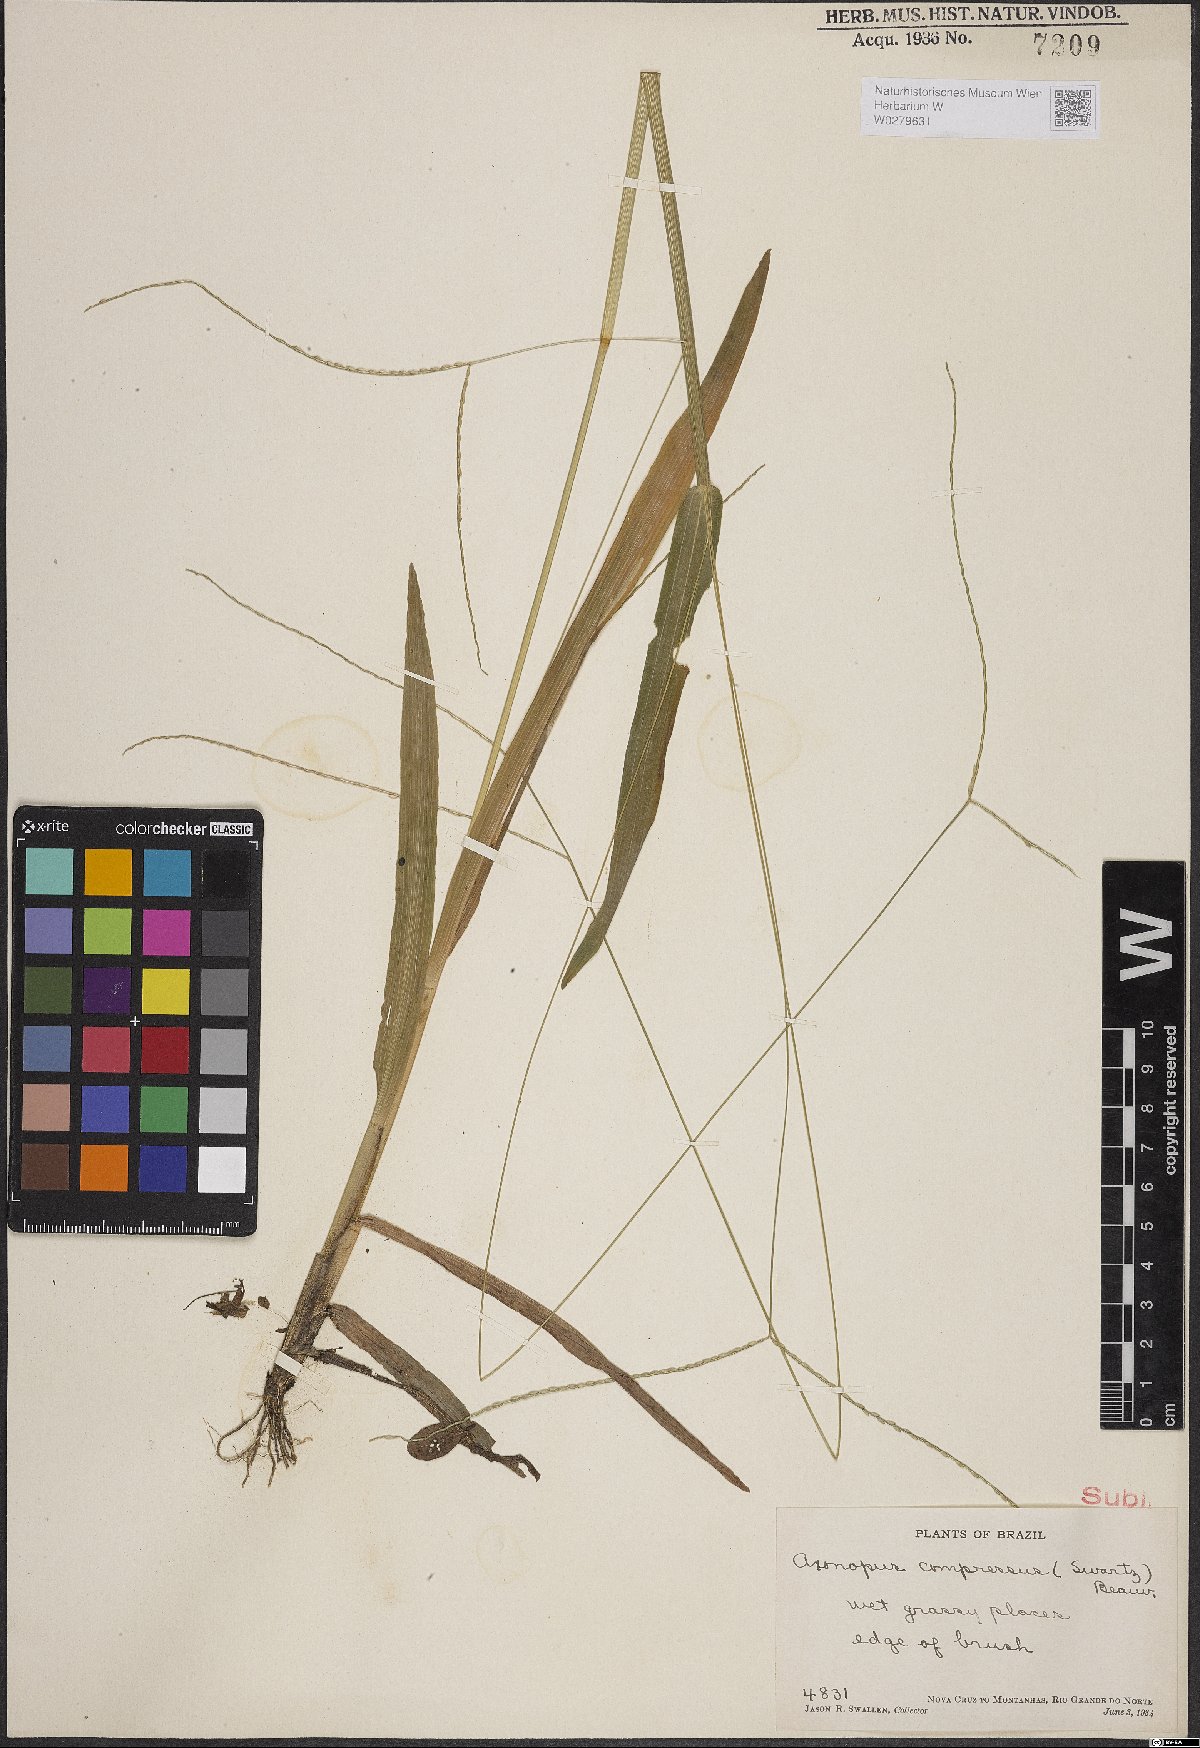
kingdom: Plantae
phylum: Tracheophyta
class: Liliopsida
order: Poales
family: Poaceae
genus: Axonopus
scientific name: Axonopus compressus
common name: American carpet grass
